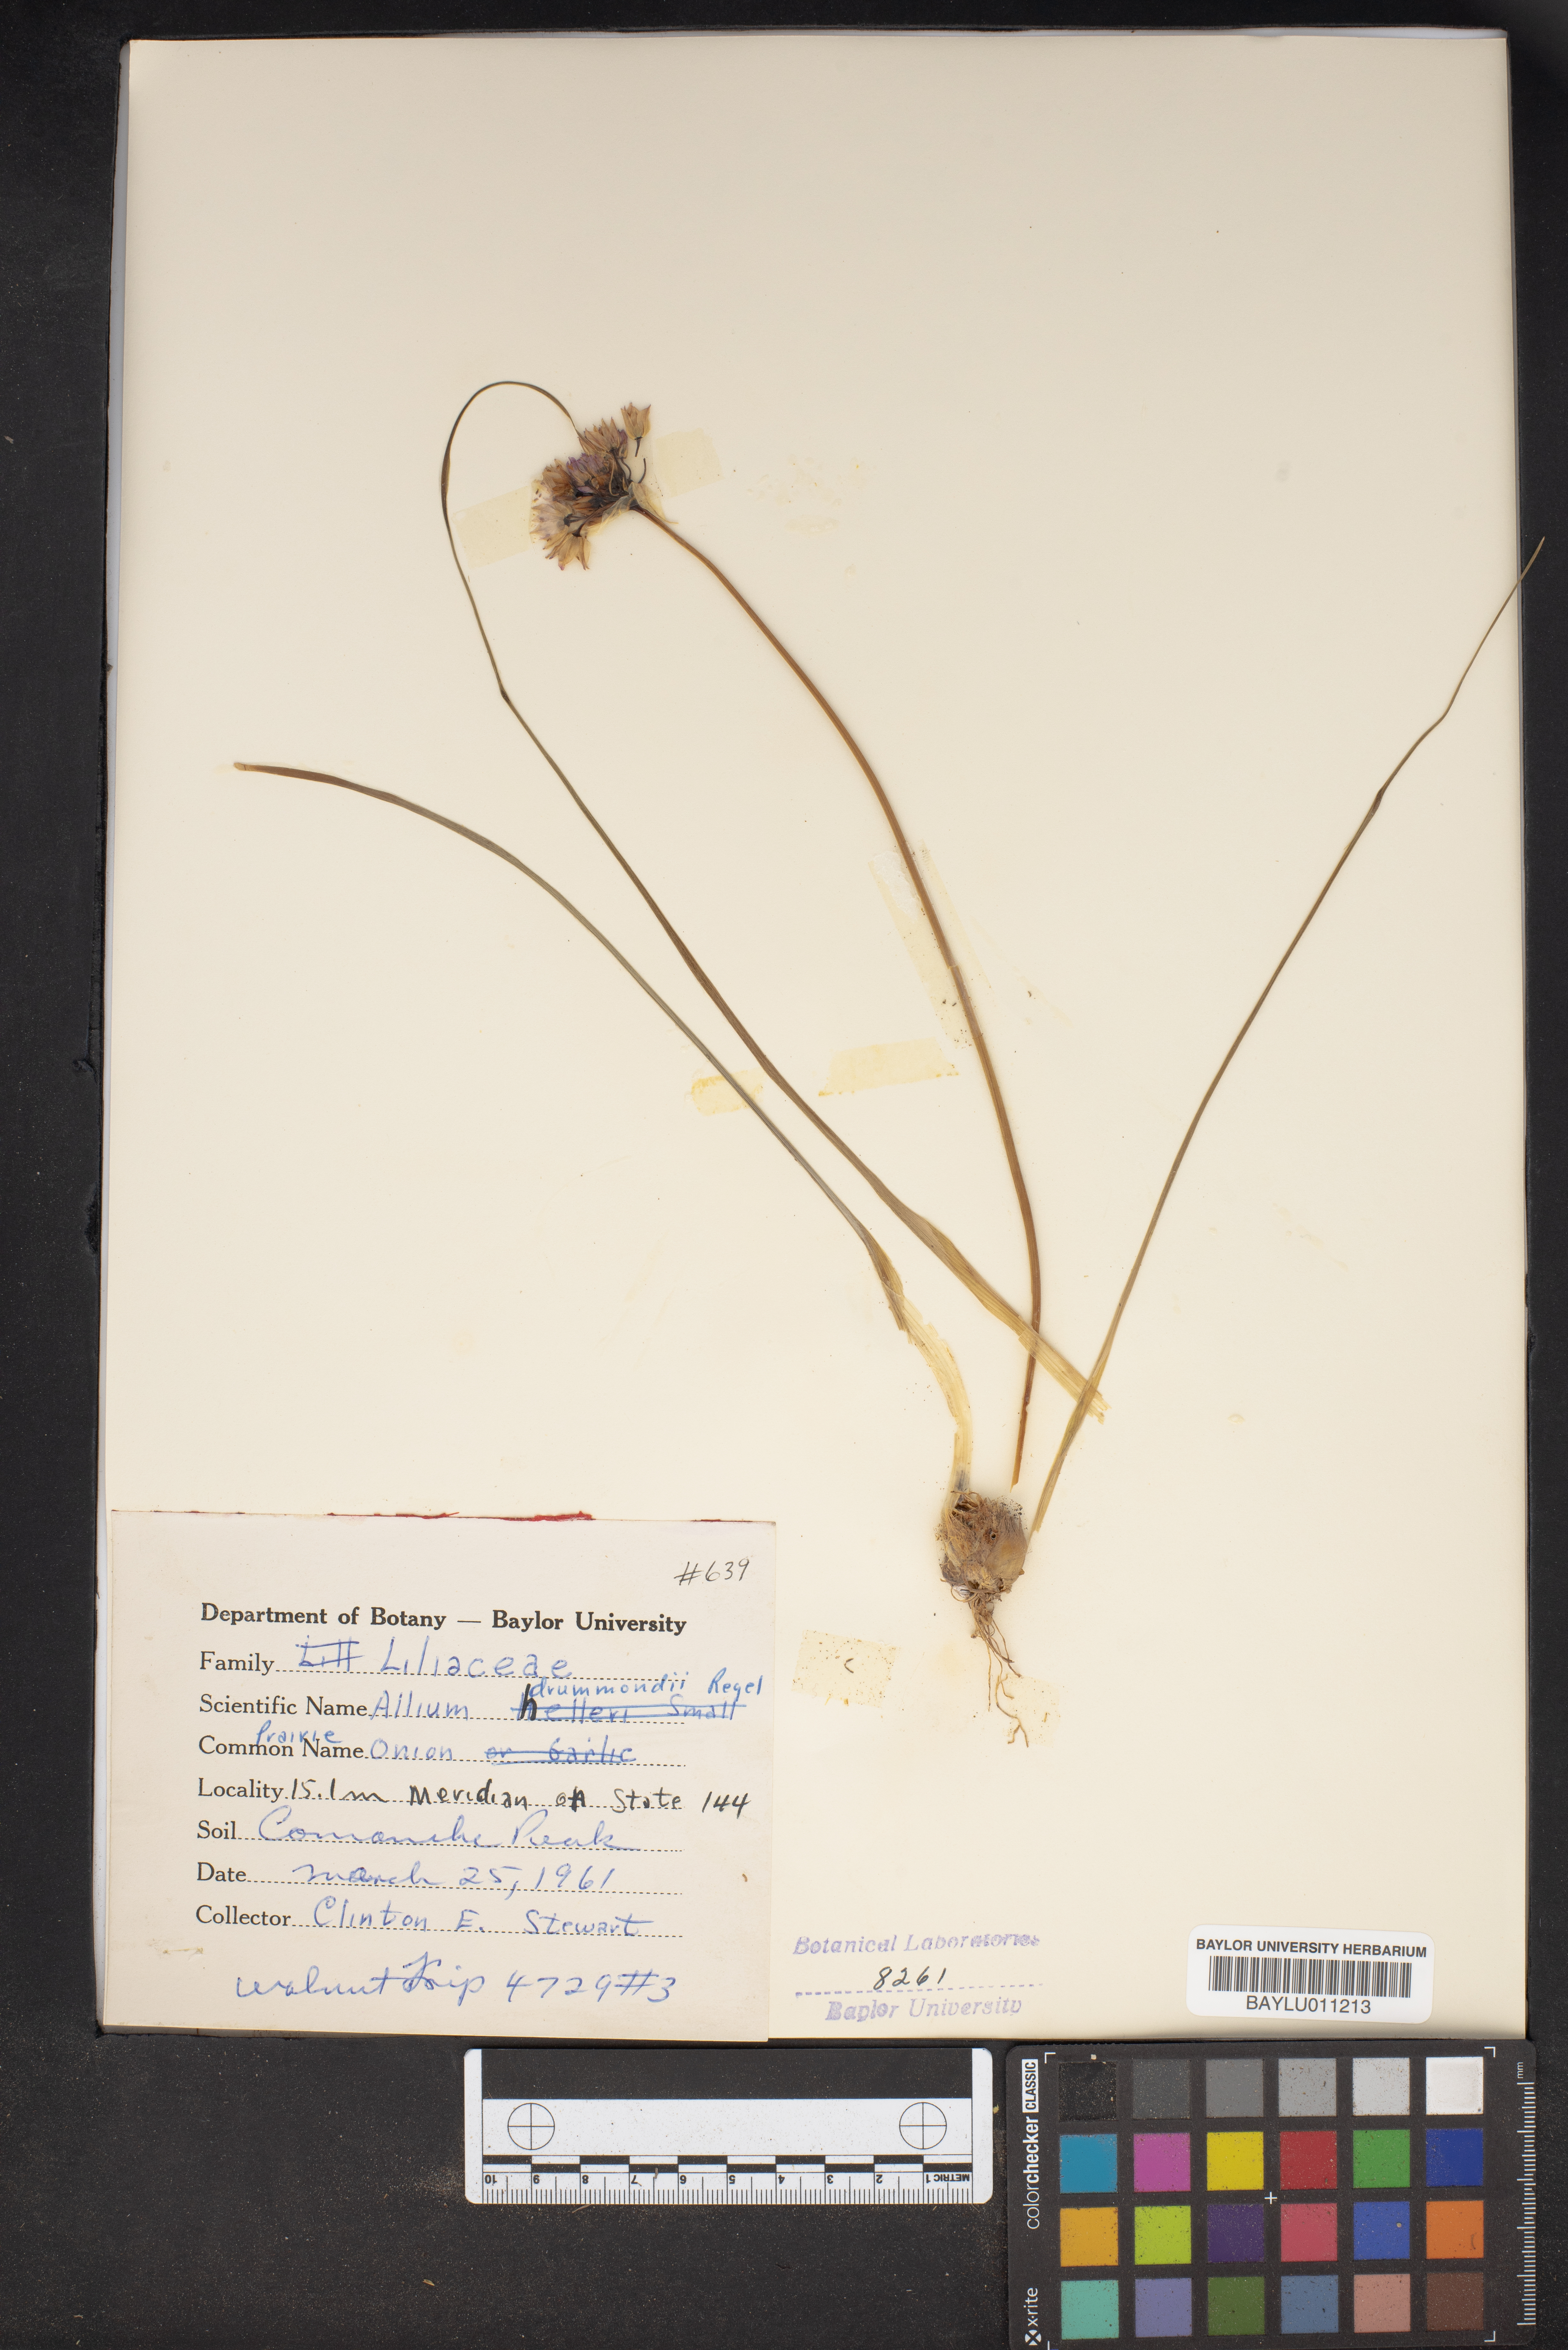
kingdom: Plantae
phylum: Tracheophyta
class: Liliopsida
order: Asparagales
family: Amaryllidaceae
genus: Allium
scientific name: Allium drummondii
